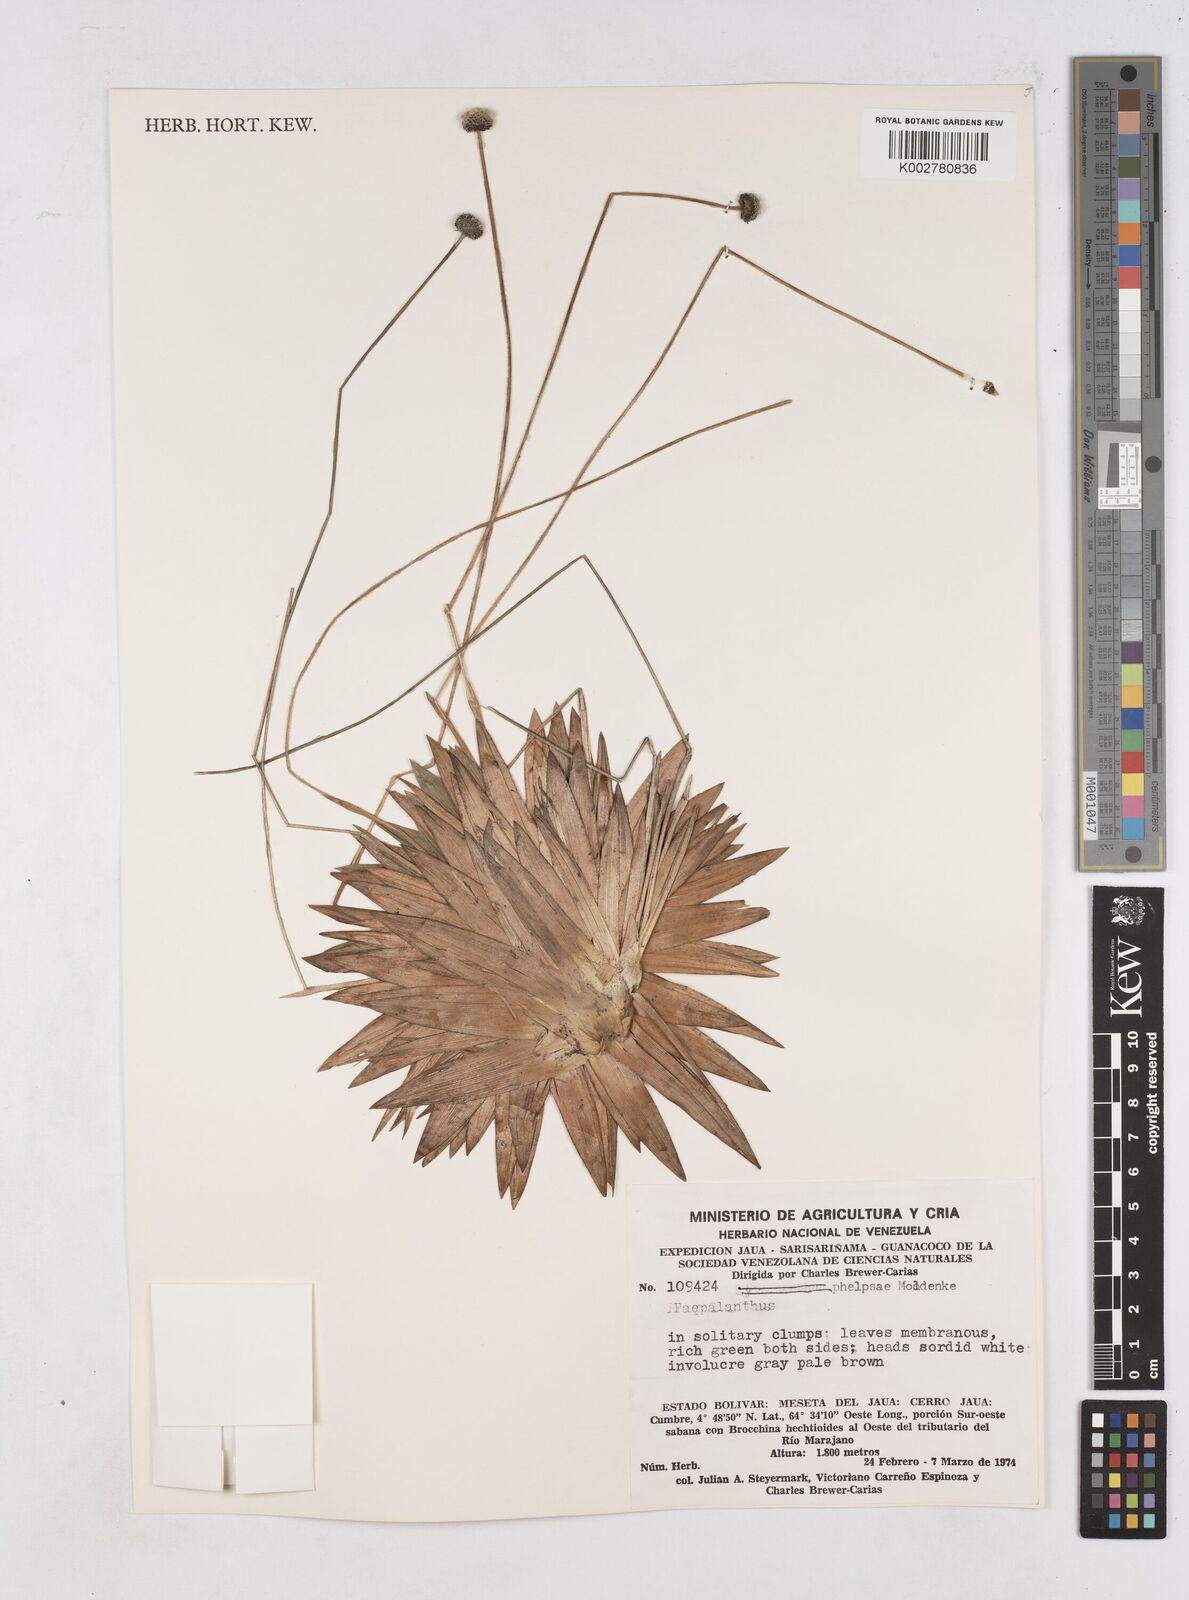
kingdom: Plantae
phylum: Tracheophyta
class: Liliopsida
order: Poales
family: Eriocaulaceae
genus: Paepalanthus
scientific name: Paepalanthus phelpsiae
